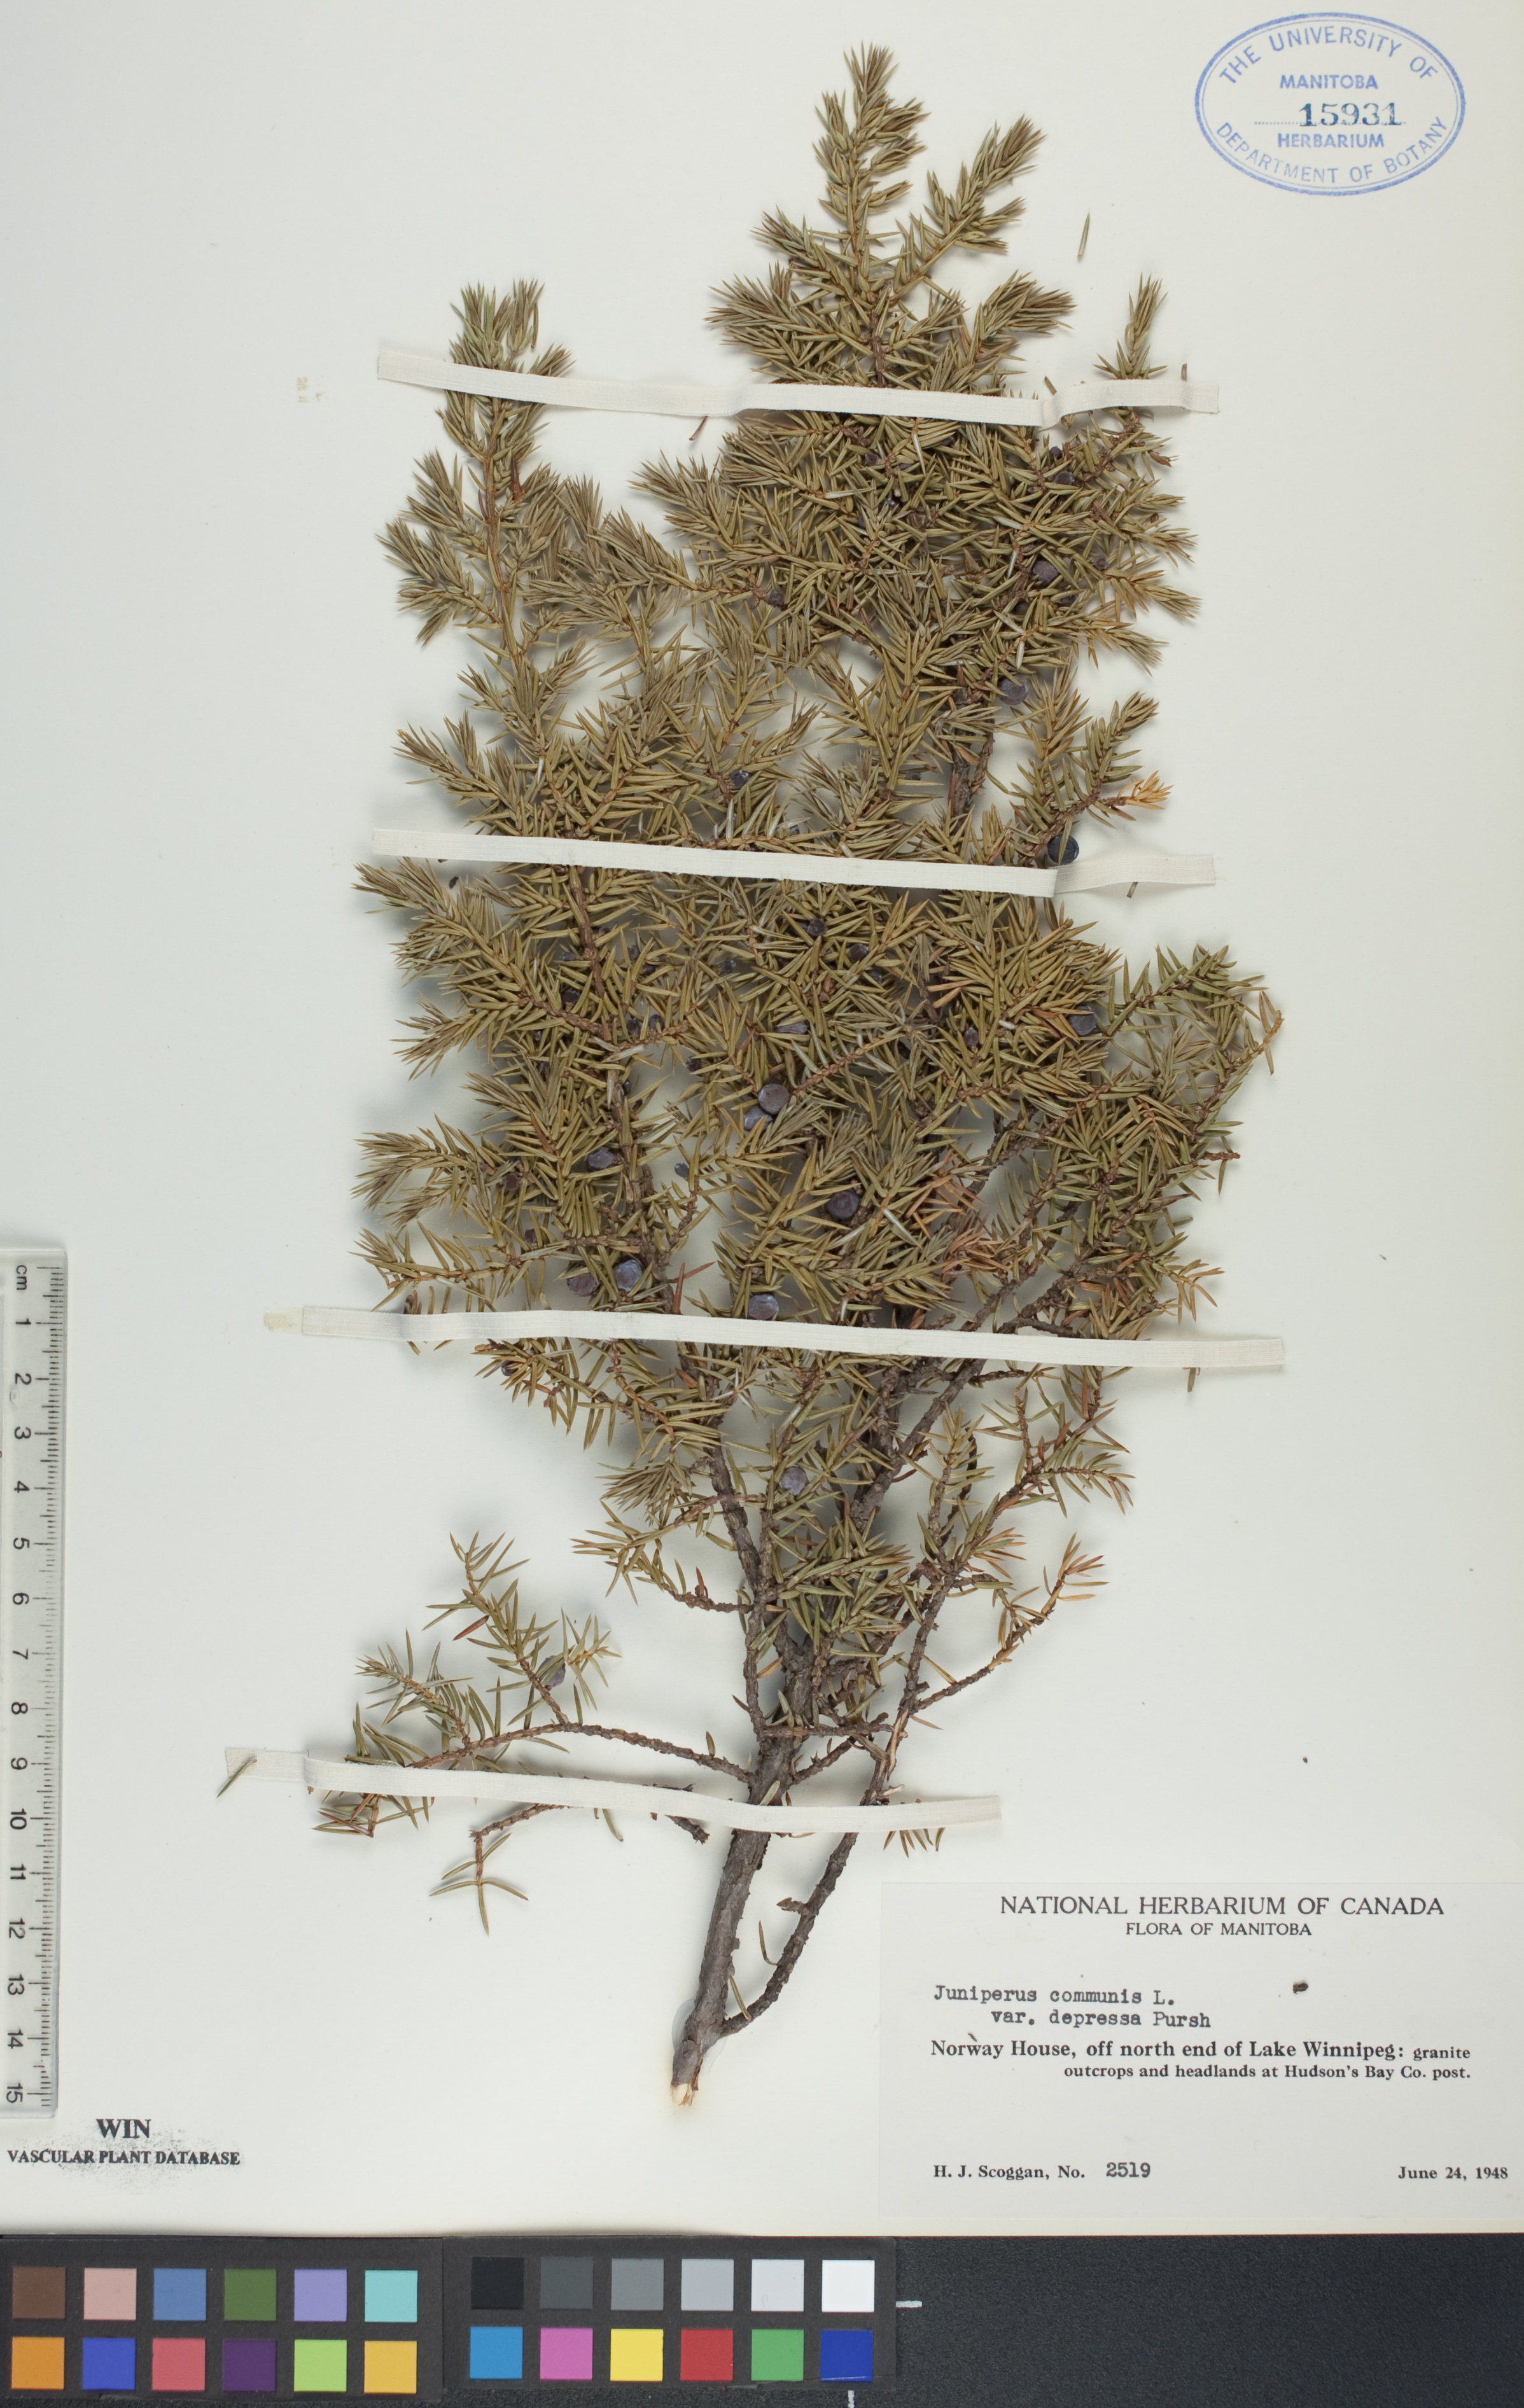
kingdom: Plantae
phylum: Tracheophyta
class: Pinopsida
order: Pinales
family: Cupressaceae
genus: Juniperus
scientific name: Juniperus communis
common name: Common juniper
